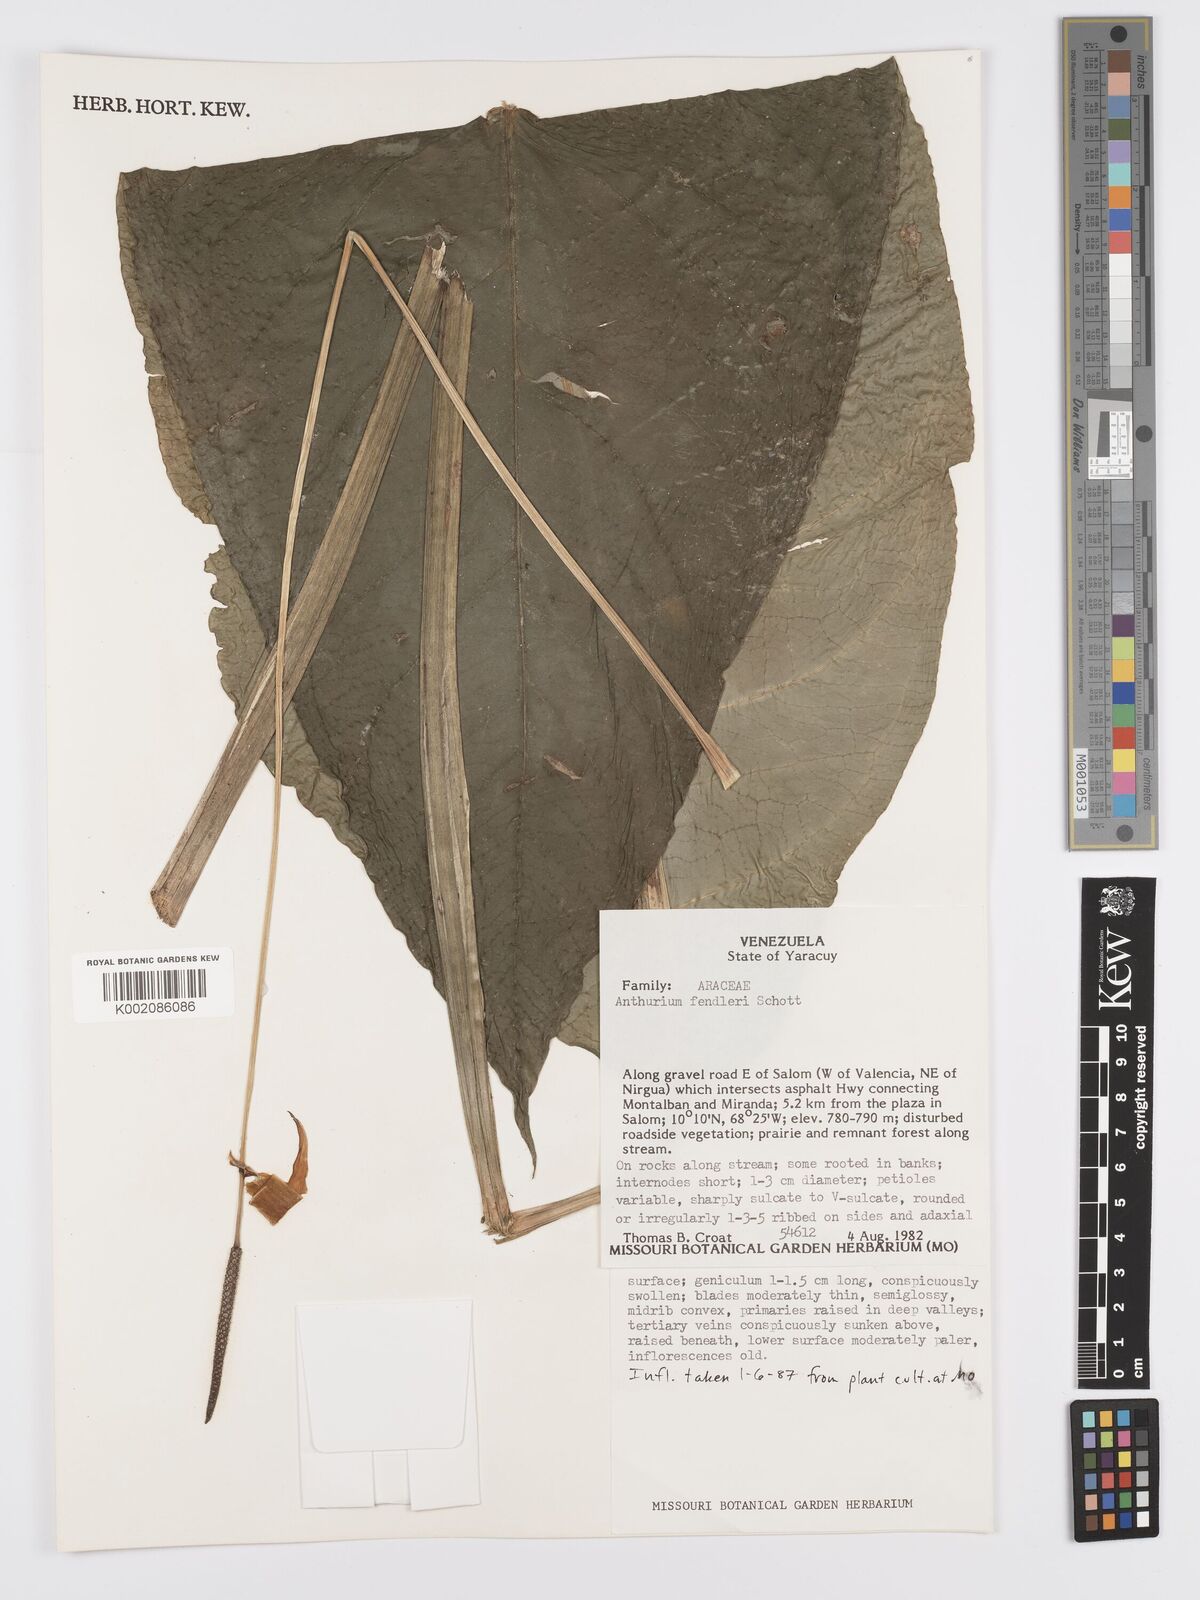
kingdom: Plantae
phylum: Tracheophyta
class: Liliopsida
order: Alismatales
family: Araceae
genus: Anthurium
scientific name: Anthurium fendleri
